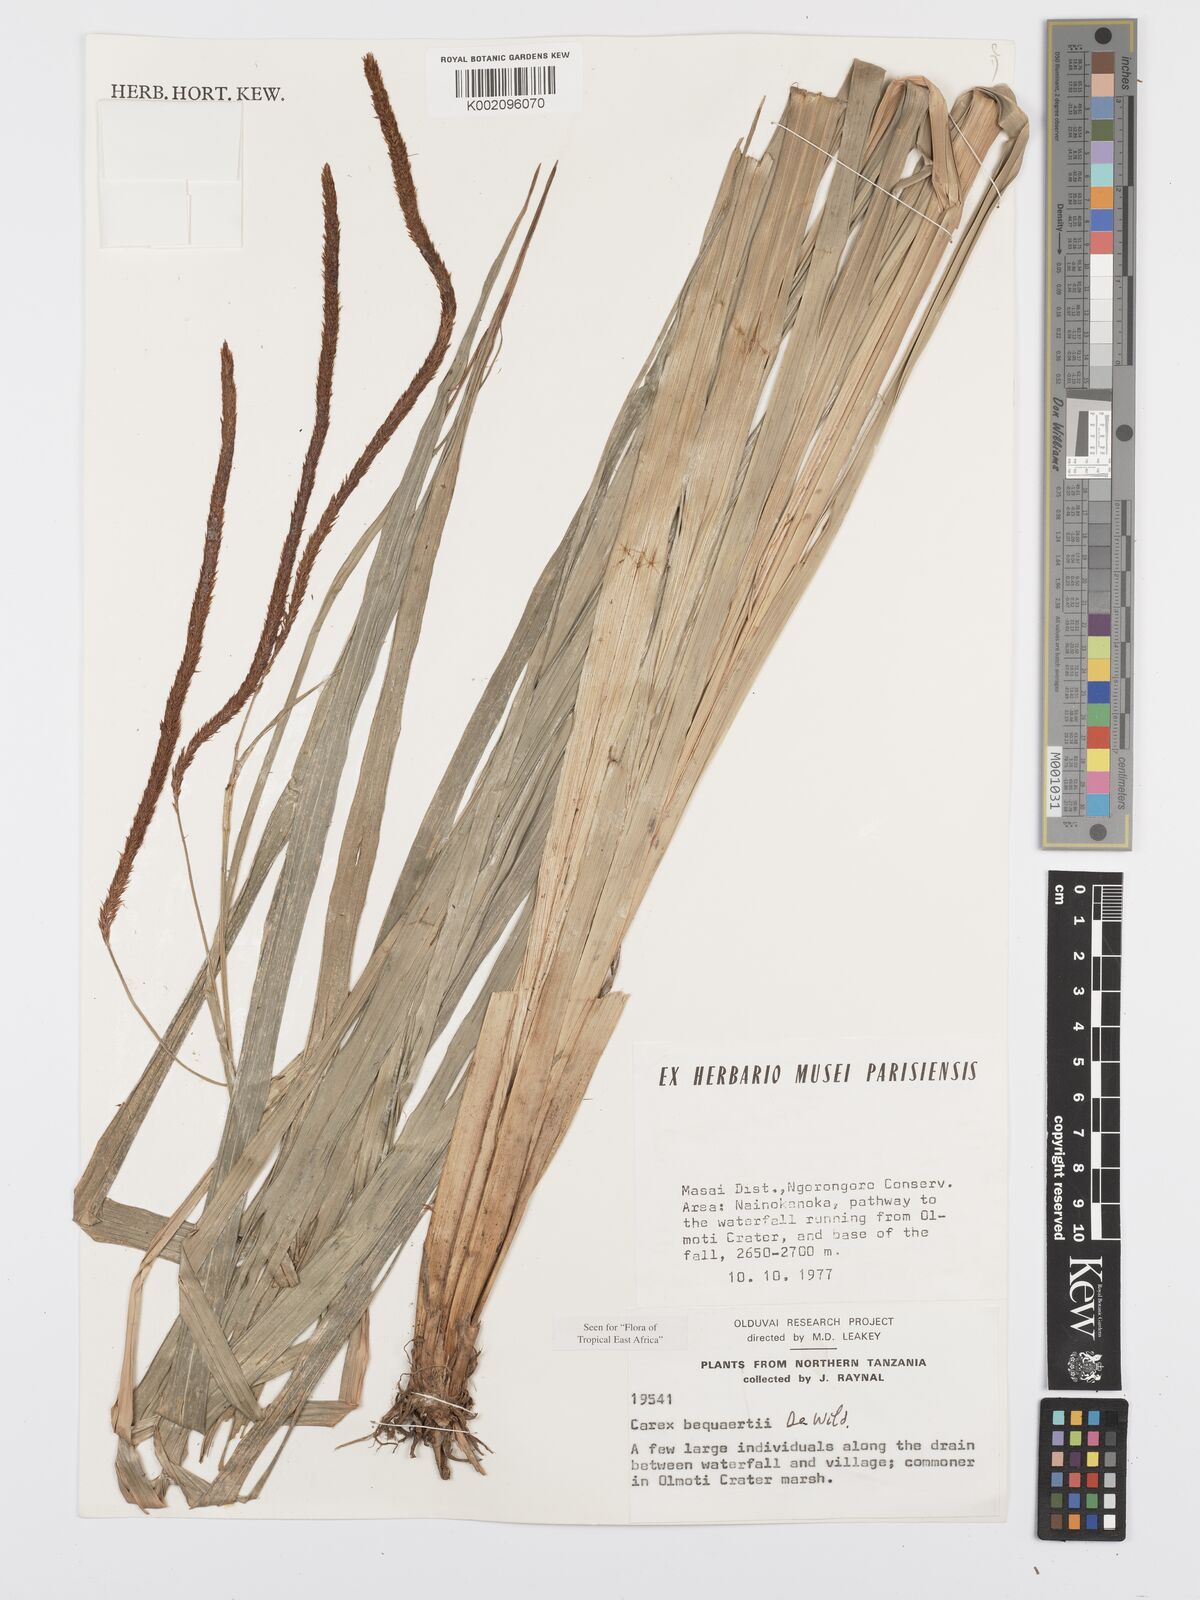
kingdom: Plantae
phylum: Tracheophyta
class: Liliopsida
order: Poales
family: Cyperaceae
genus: Carex
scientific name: Carex bequaertii
